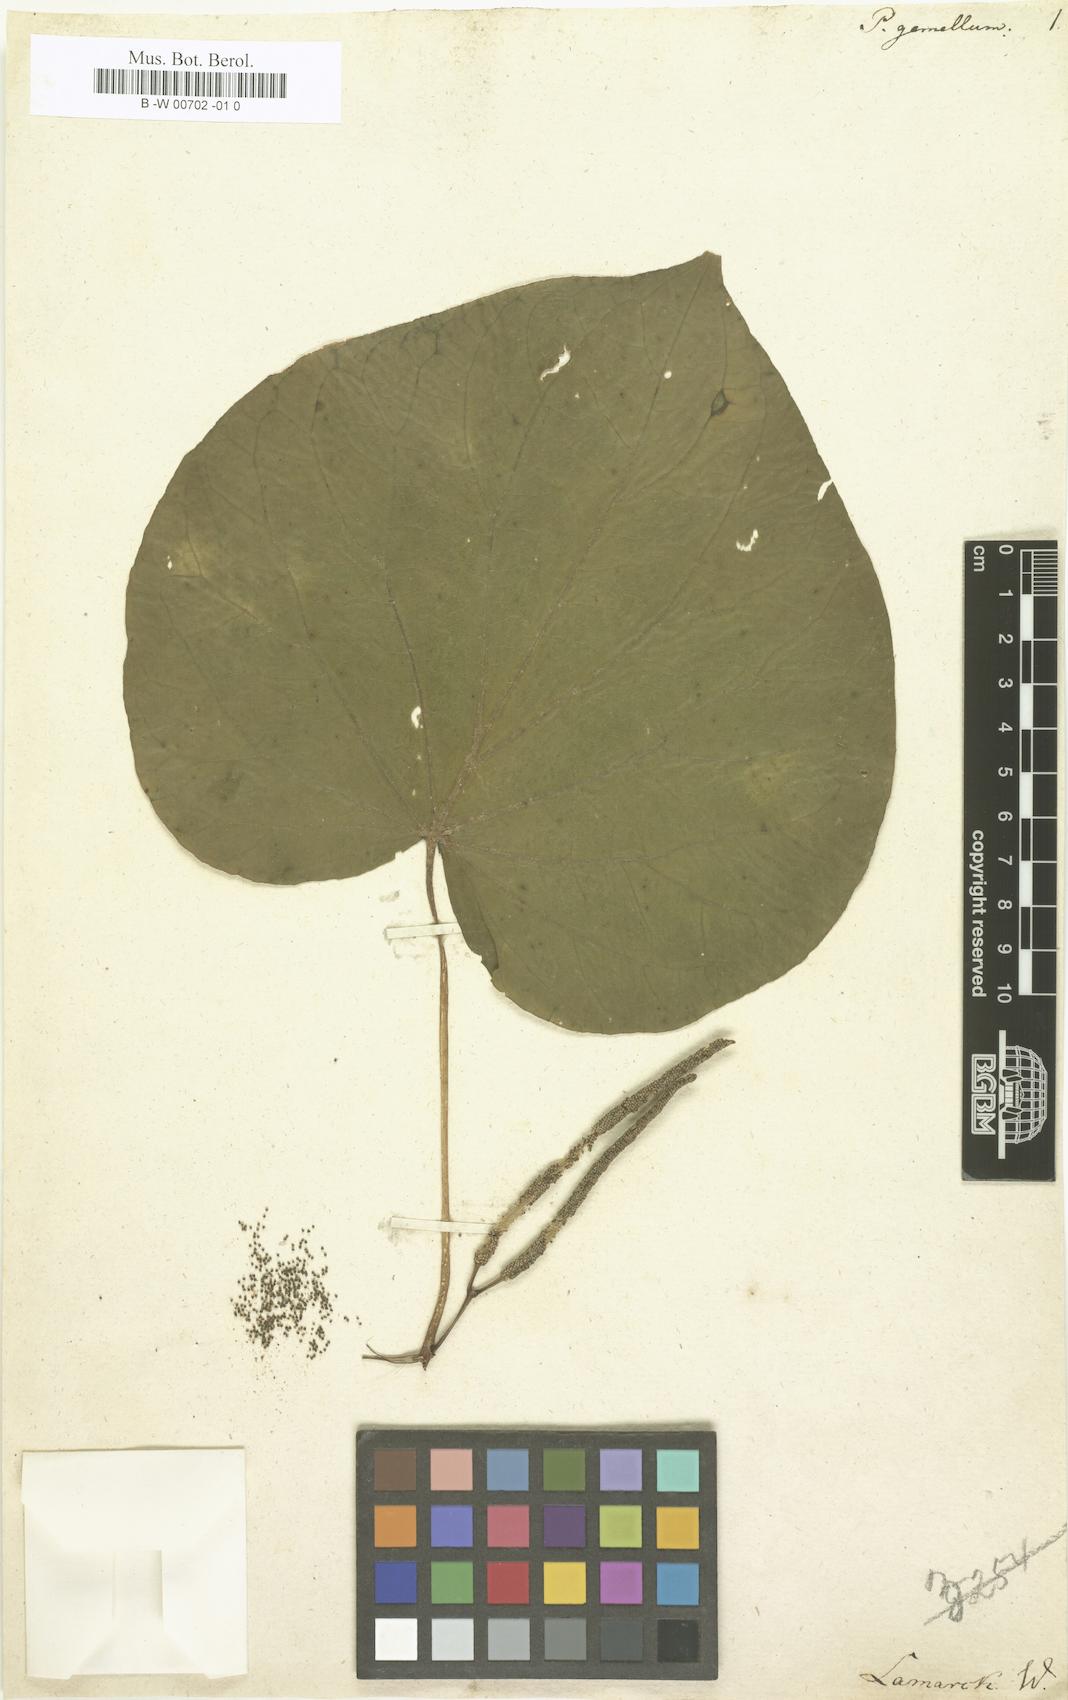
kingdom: Plantae
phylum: Tracheophyta
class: Magnoliopsida
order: Piperales
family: Piperaceae
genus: Piper
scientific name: Piper peltatum
